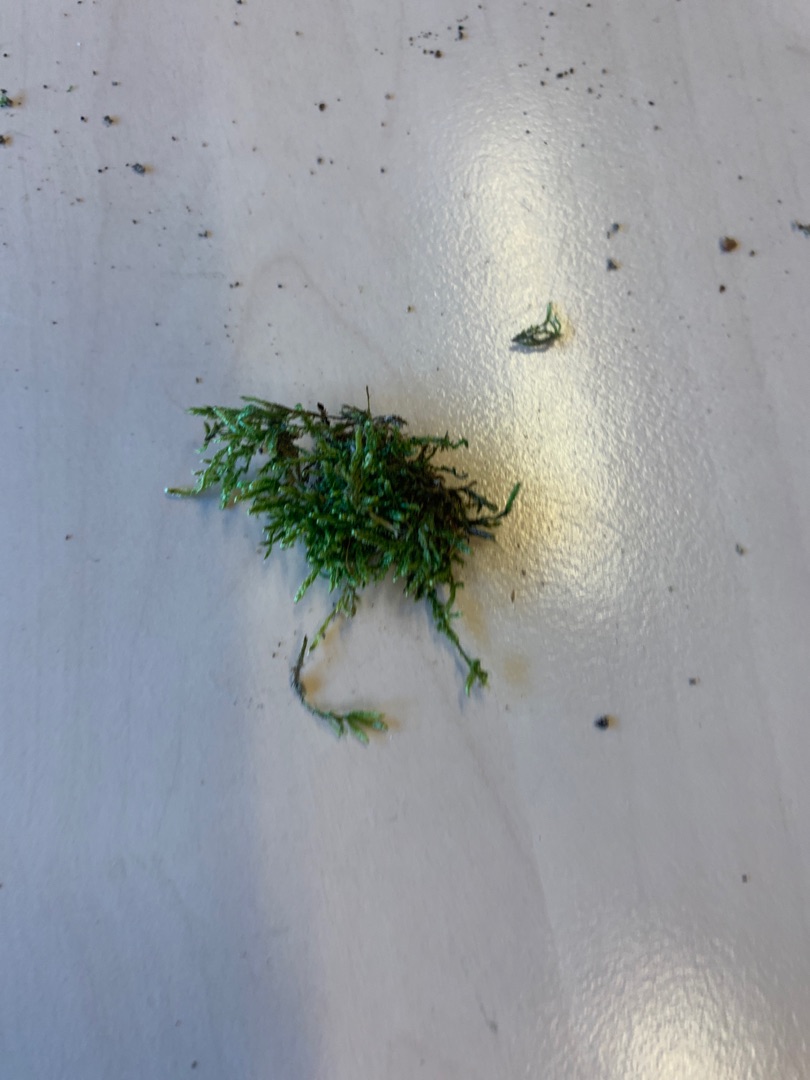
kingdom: Plantae
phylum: Bryophyta
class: Bryopsida
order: Hypnales
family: Hypnaceae
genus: Hypnum
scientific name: Hypnum
